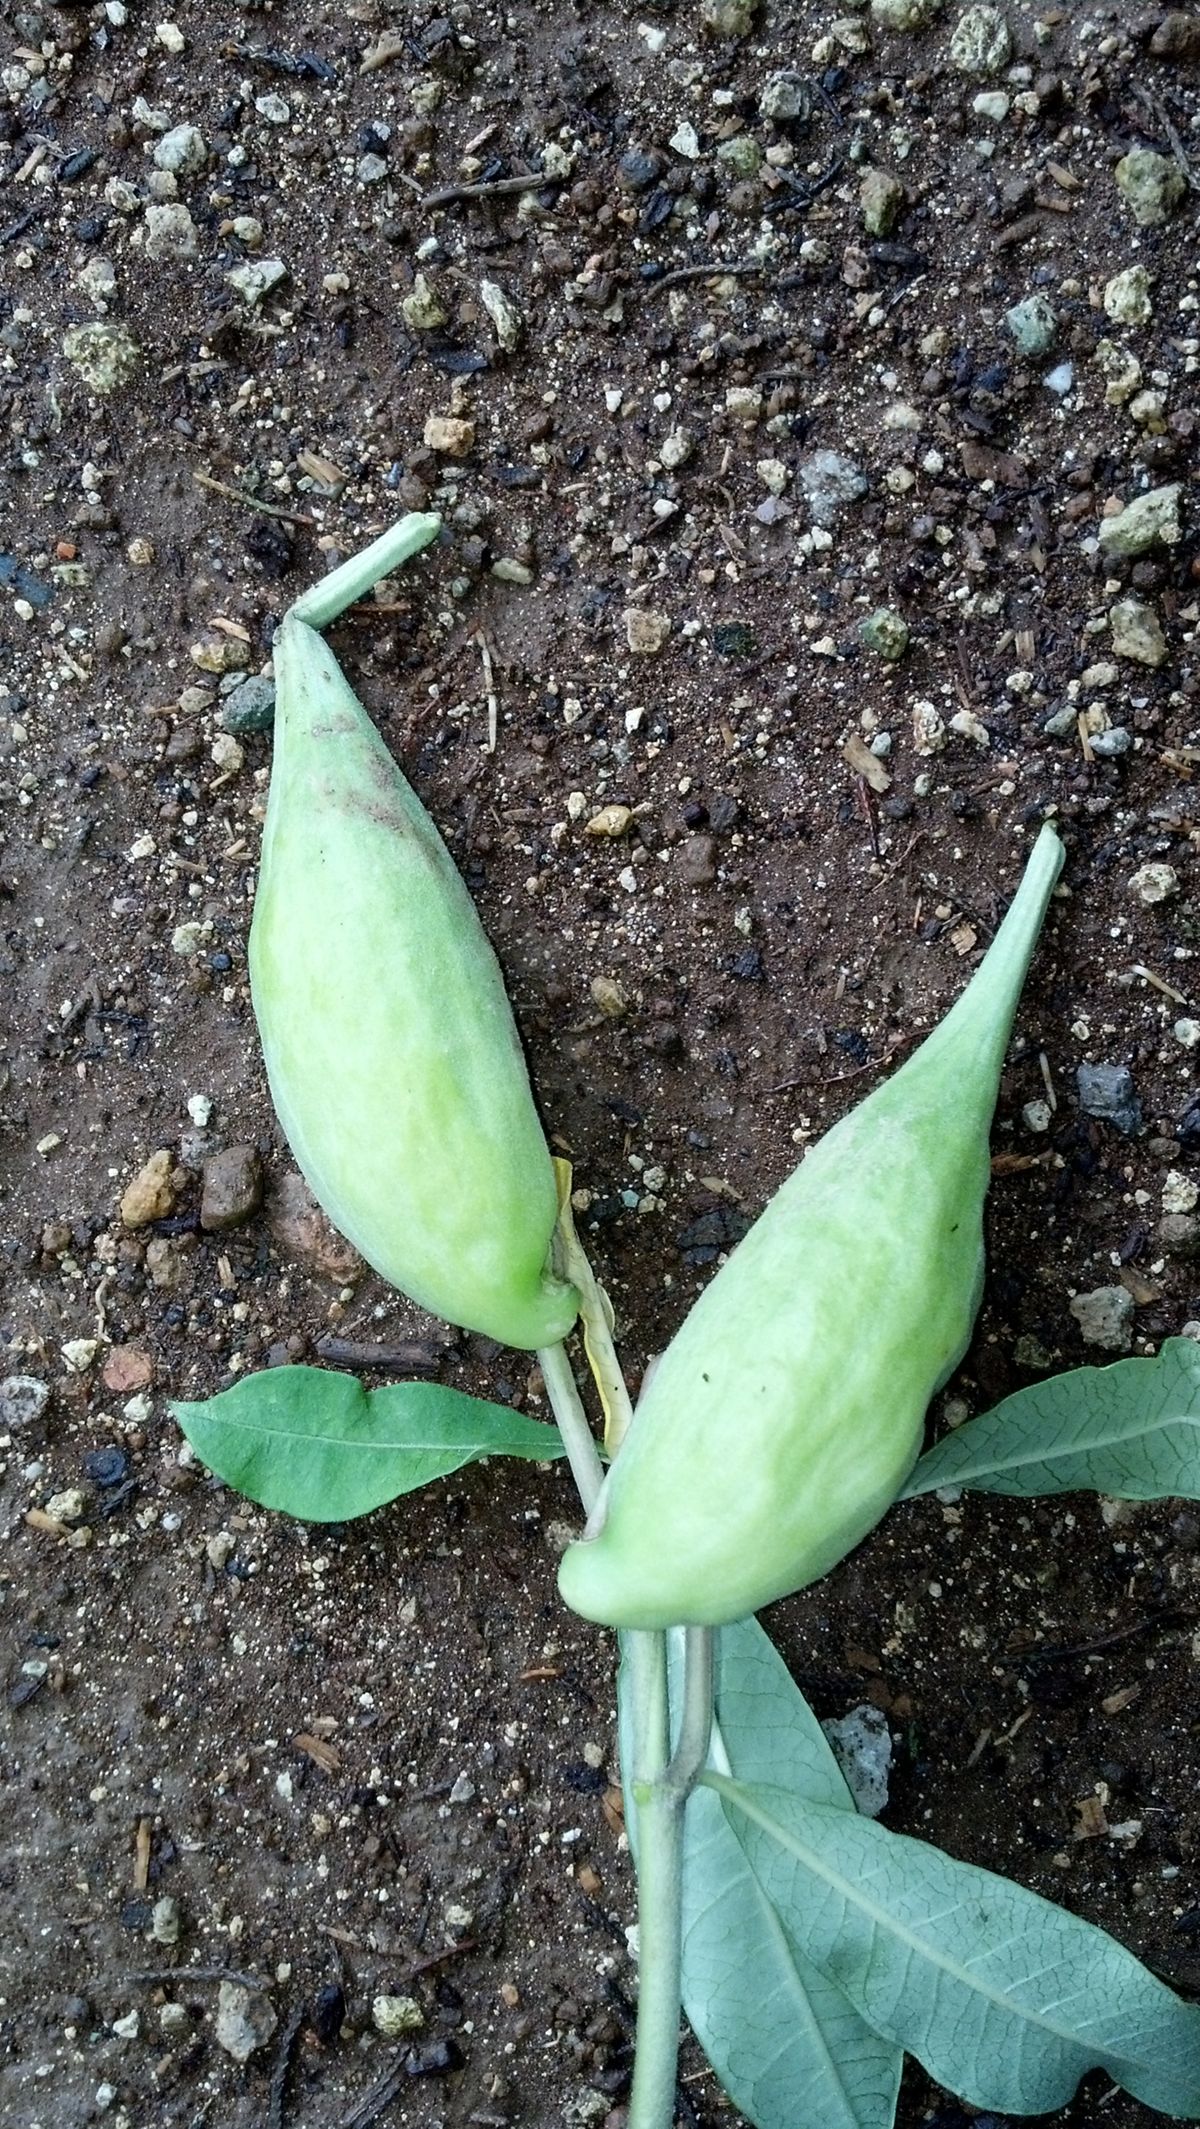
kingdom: Plantae
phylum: Tracheophyta
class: Magnoliopsida
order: Gentianales
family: Apocynaceae
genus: Asclepias
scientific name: Asclepias similis
